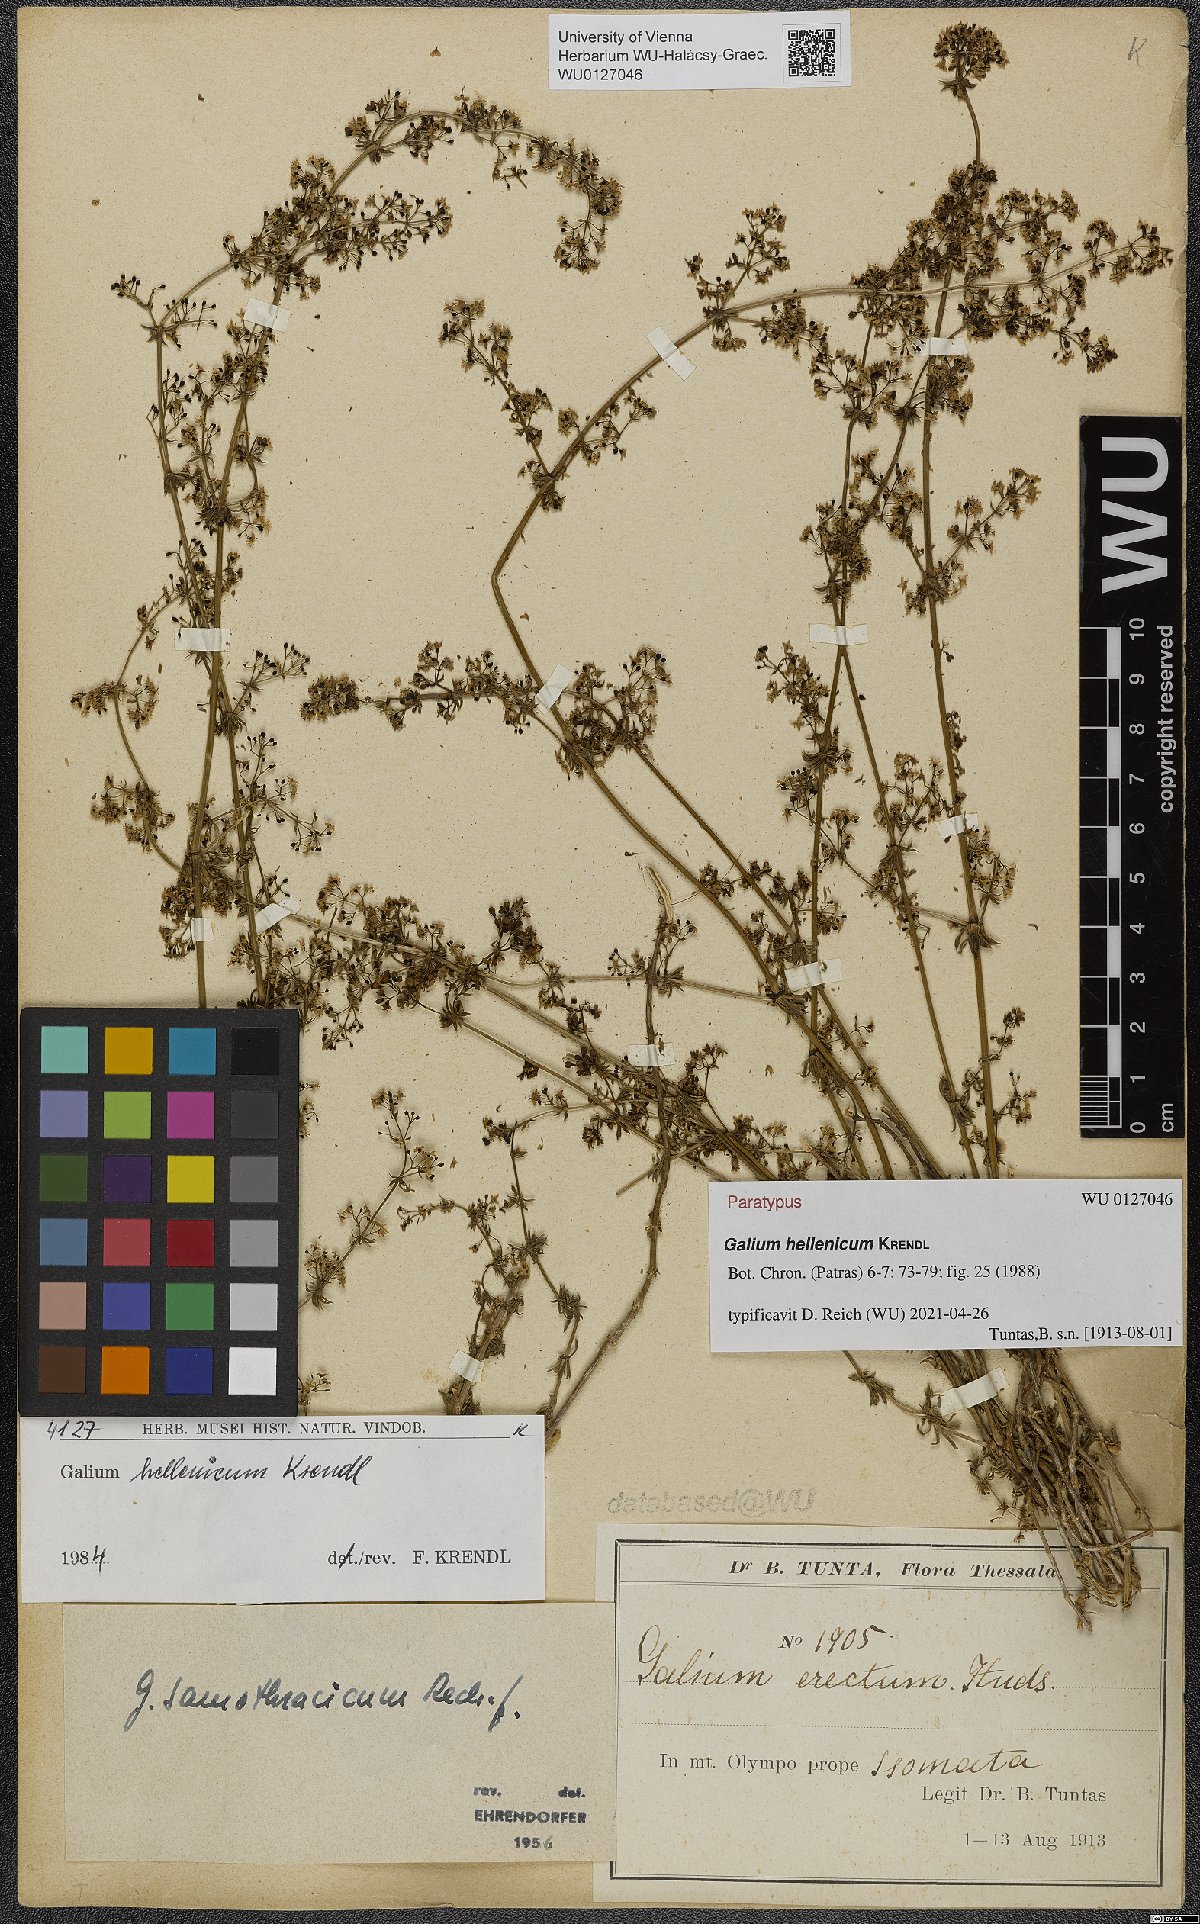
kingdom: Plantae
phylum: Tracheophyta
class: Magnoliopsida
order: Gentianales
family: Rubiaceae
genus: Galium
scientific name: Galium hellenicum
